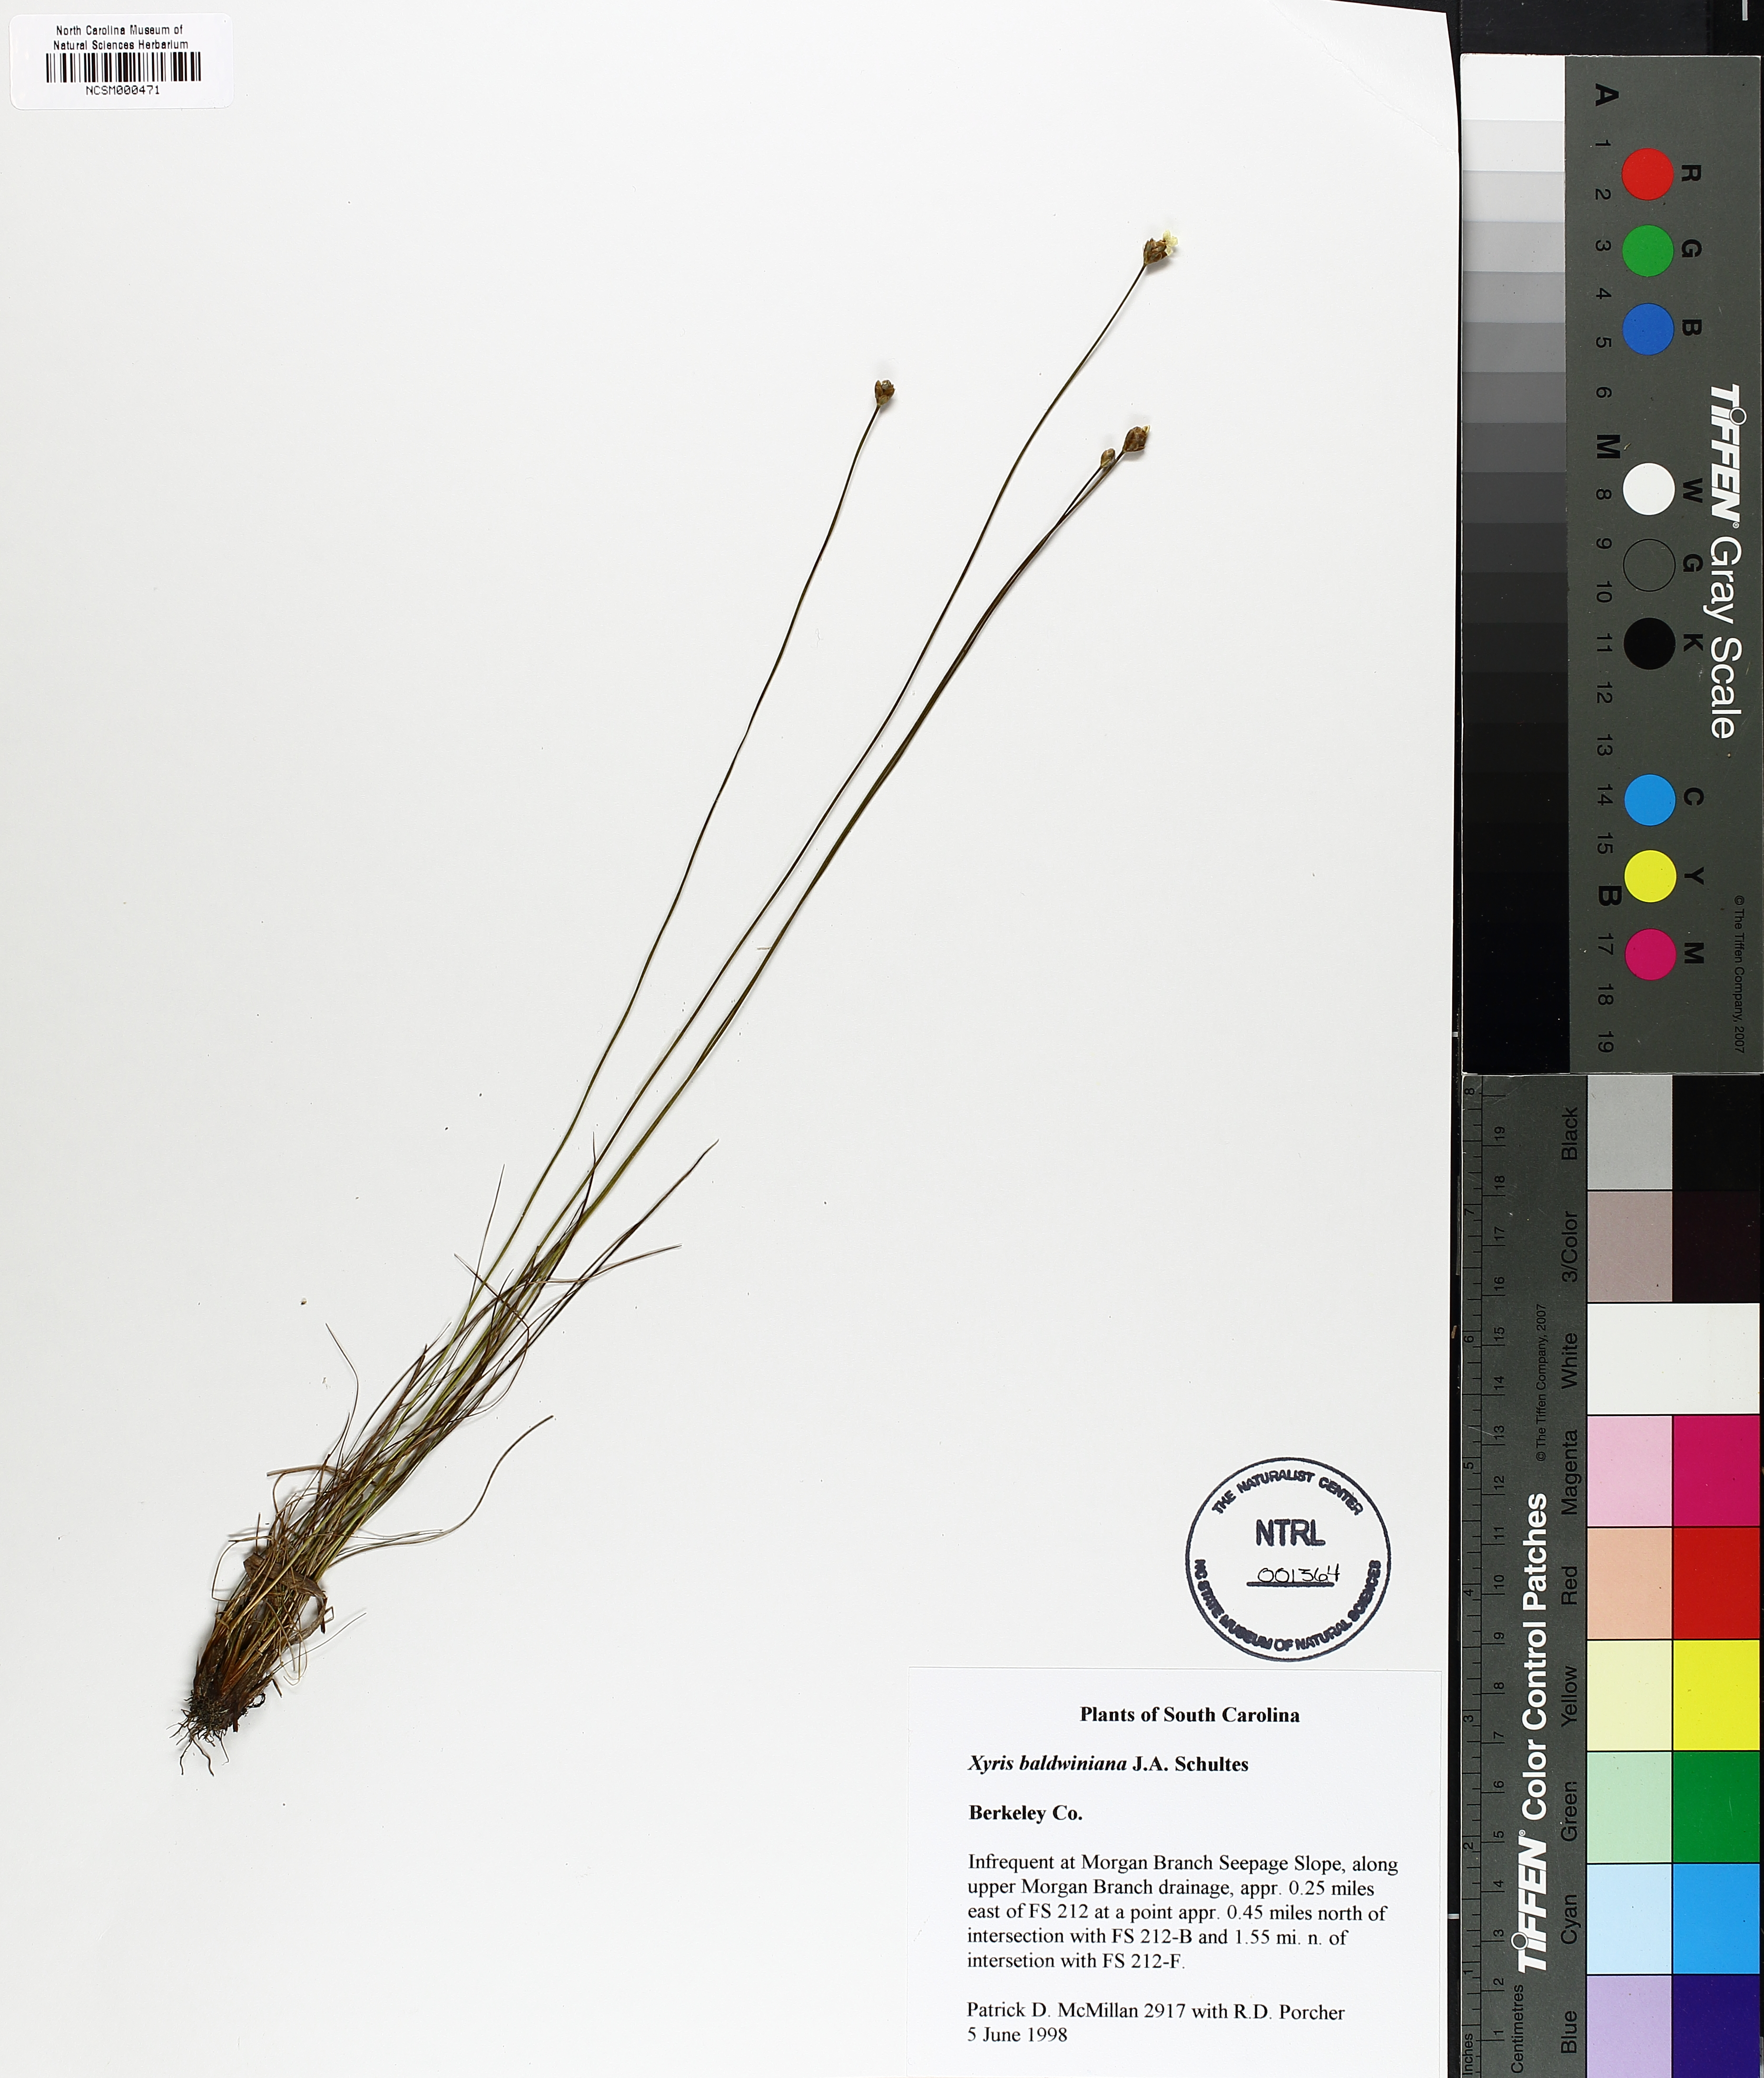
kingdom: Plantae
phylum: Tracheophyta
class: Liliopsida
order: Poales
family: Xyridaceae
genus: Xyris
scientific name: Xyris baldwiniana
